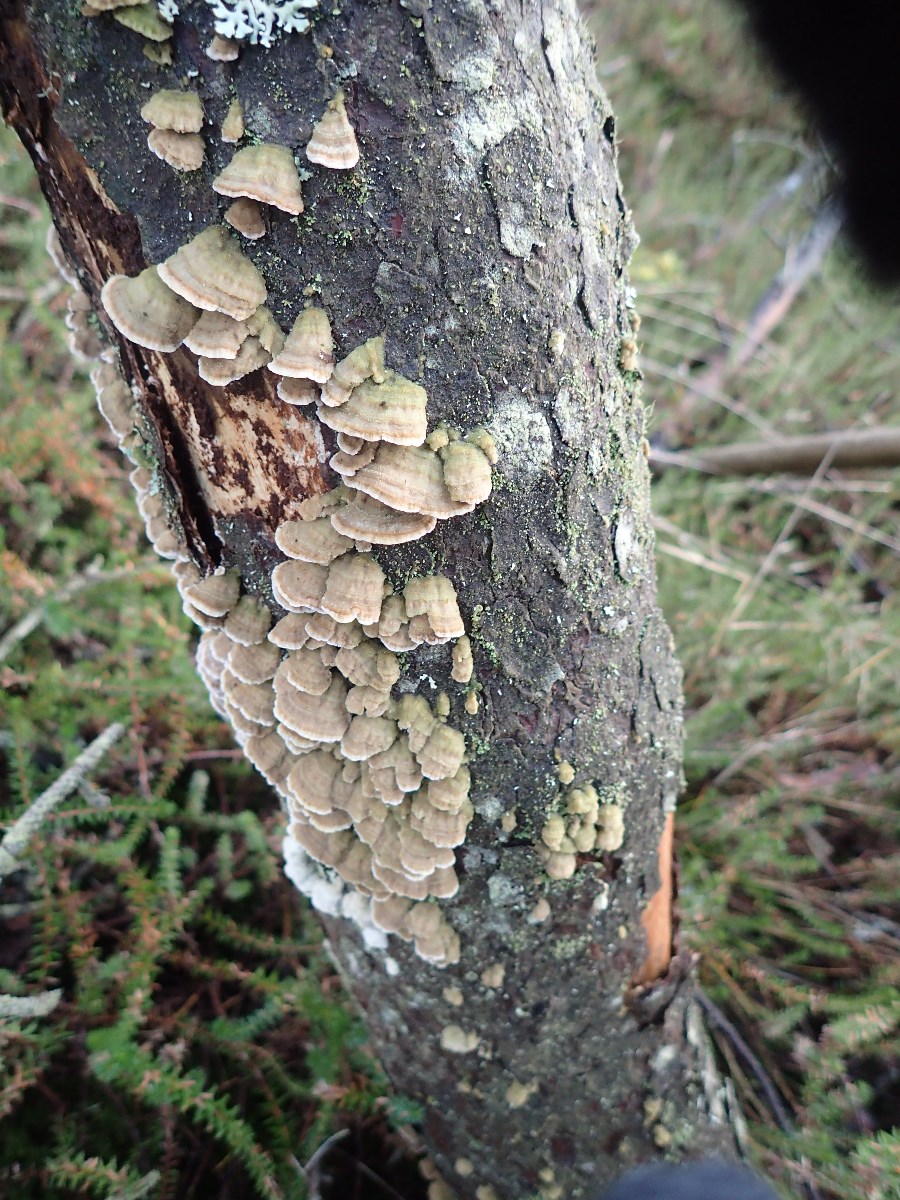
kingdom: Fungi
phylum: Basidiomycota
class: Agaricomycetes
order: Hymenochaetales
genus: Trichaptum
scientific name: Trichaptum fuscoviolaceum
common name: tandet violporesvamp
